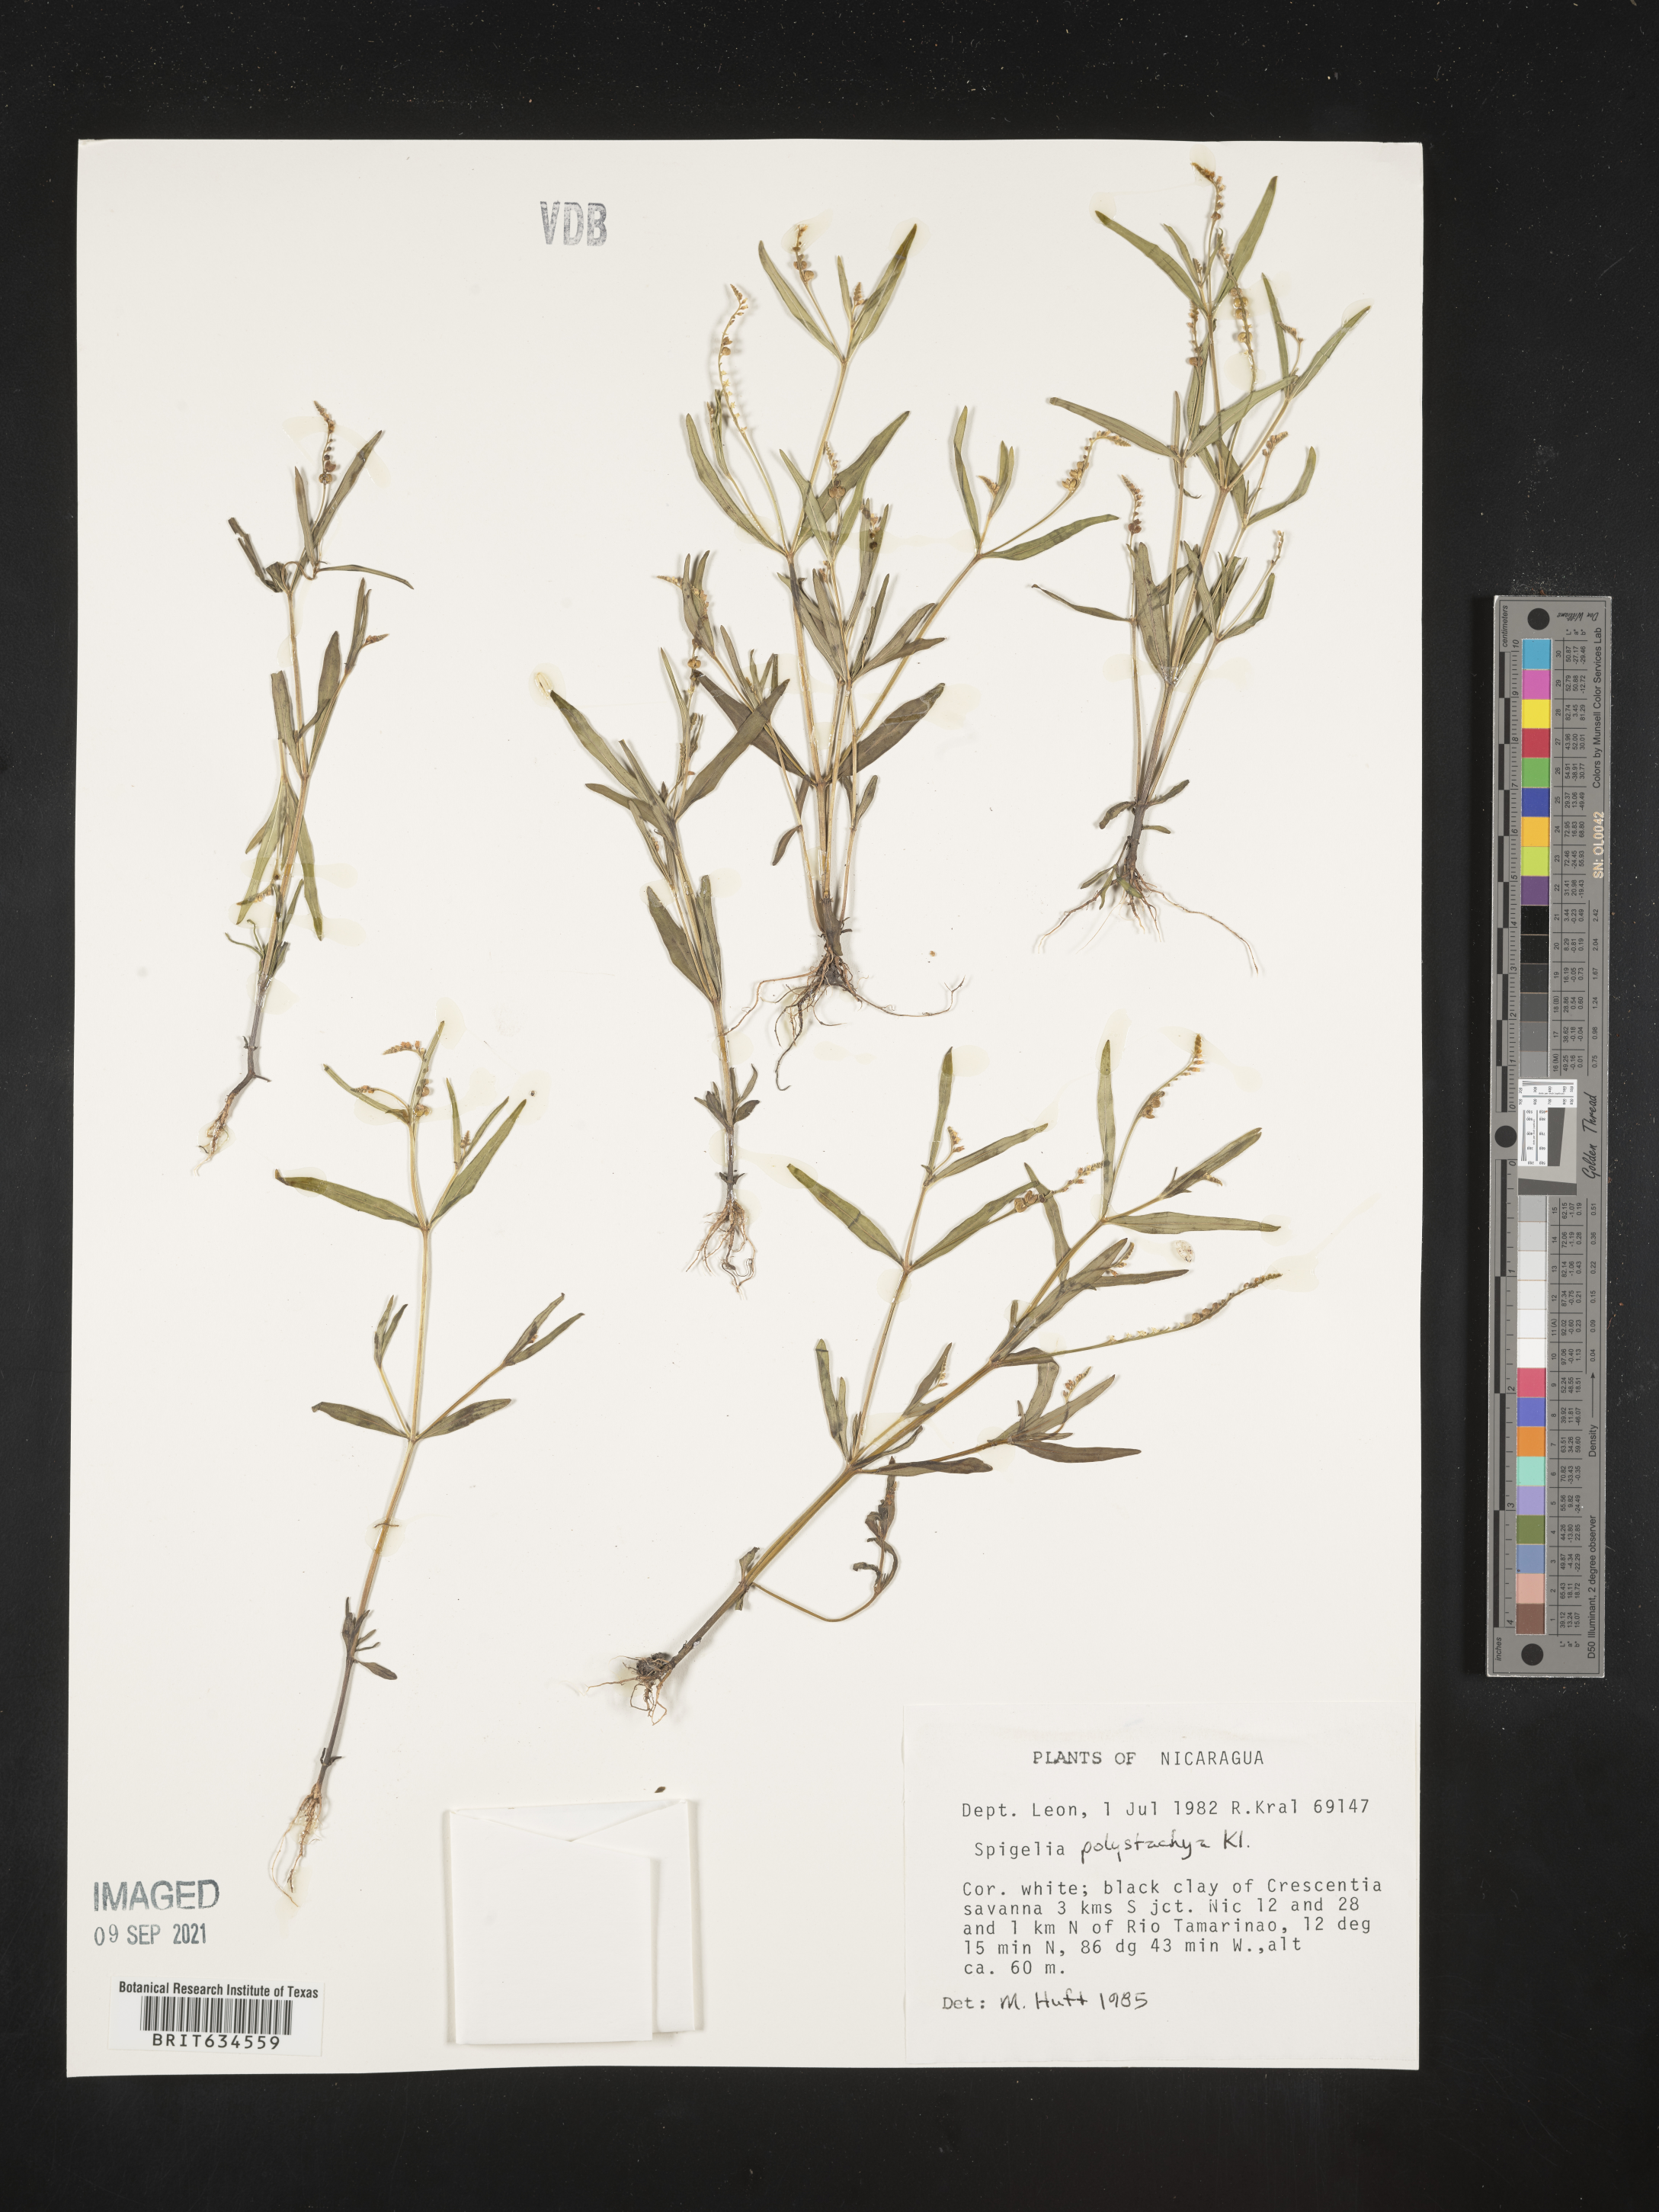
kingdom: Plantae
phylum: Tracheophyta
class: Magnoliopsida
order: Gentianales
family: Loganiaceae
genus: Spigelia
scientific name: Spigelia
